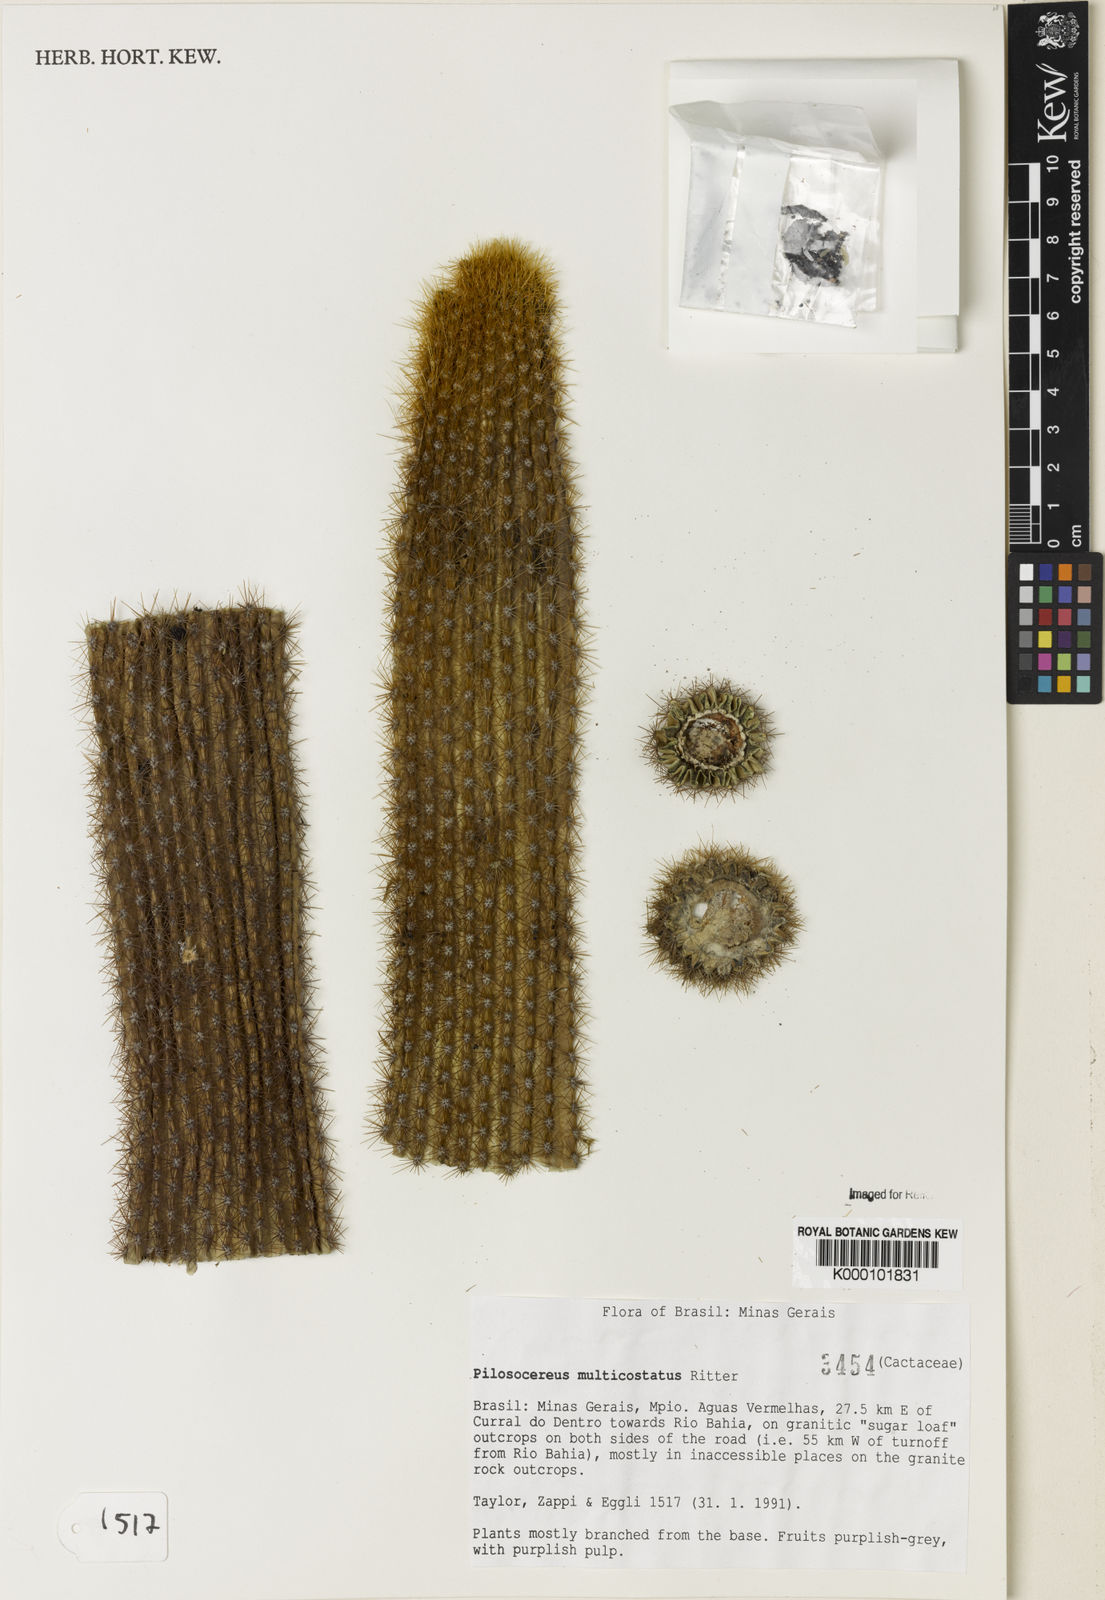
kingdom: Plantae
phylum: Tracheophyta
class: Magnoliopsida
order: Caryophyllales
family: Cactaceae
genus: Pilosocereus
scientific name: Pilosocereus multicostatus
